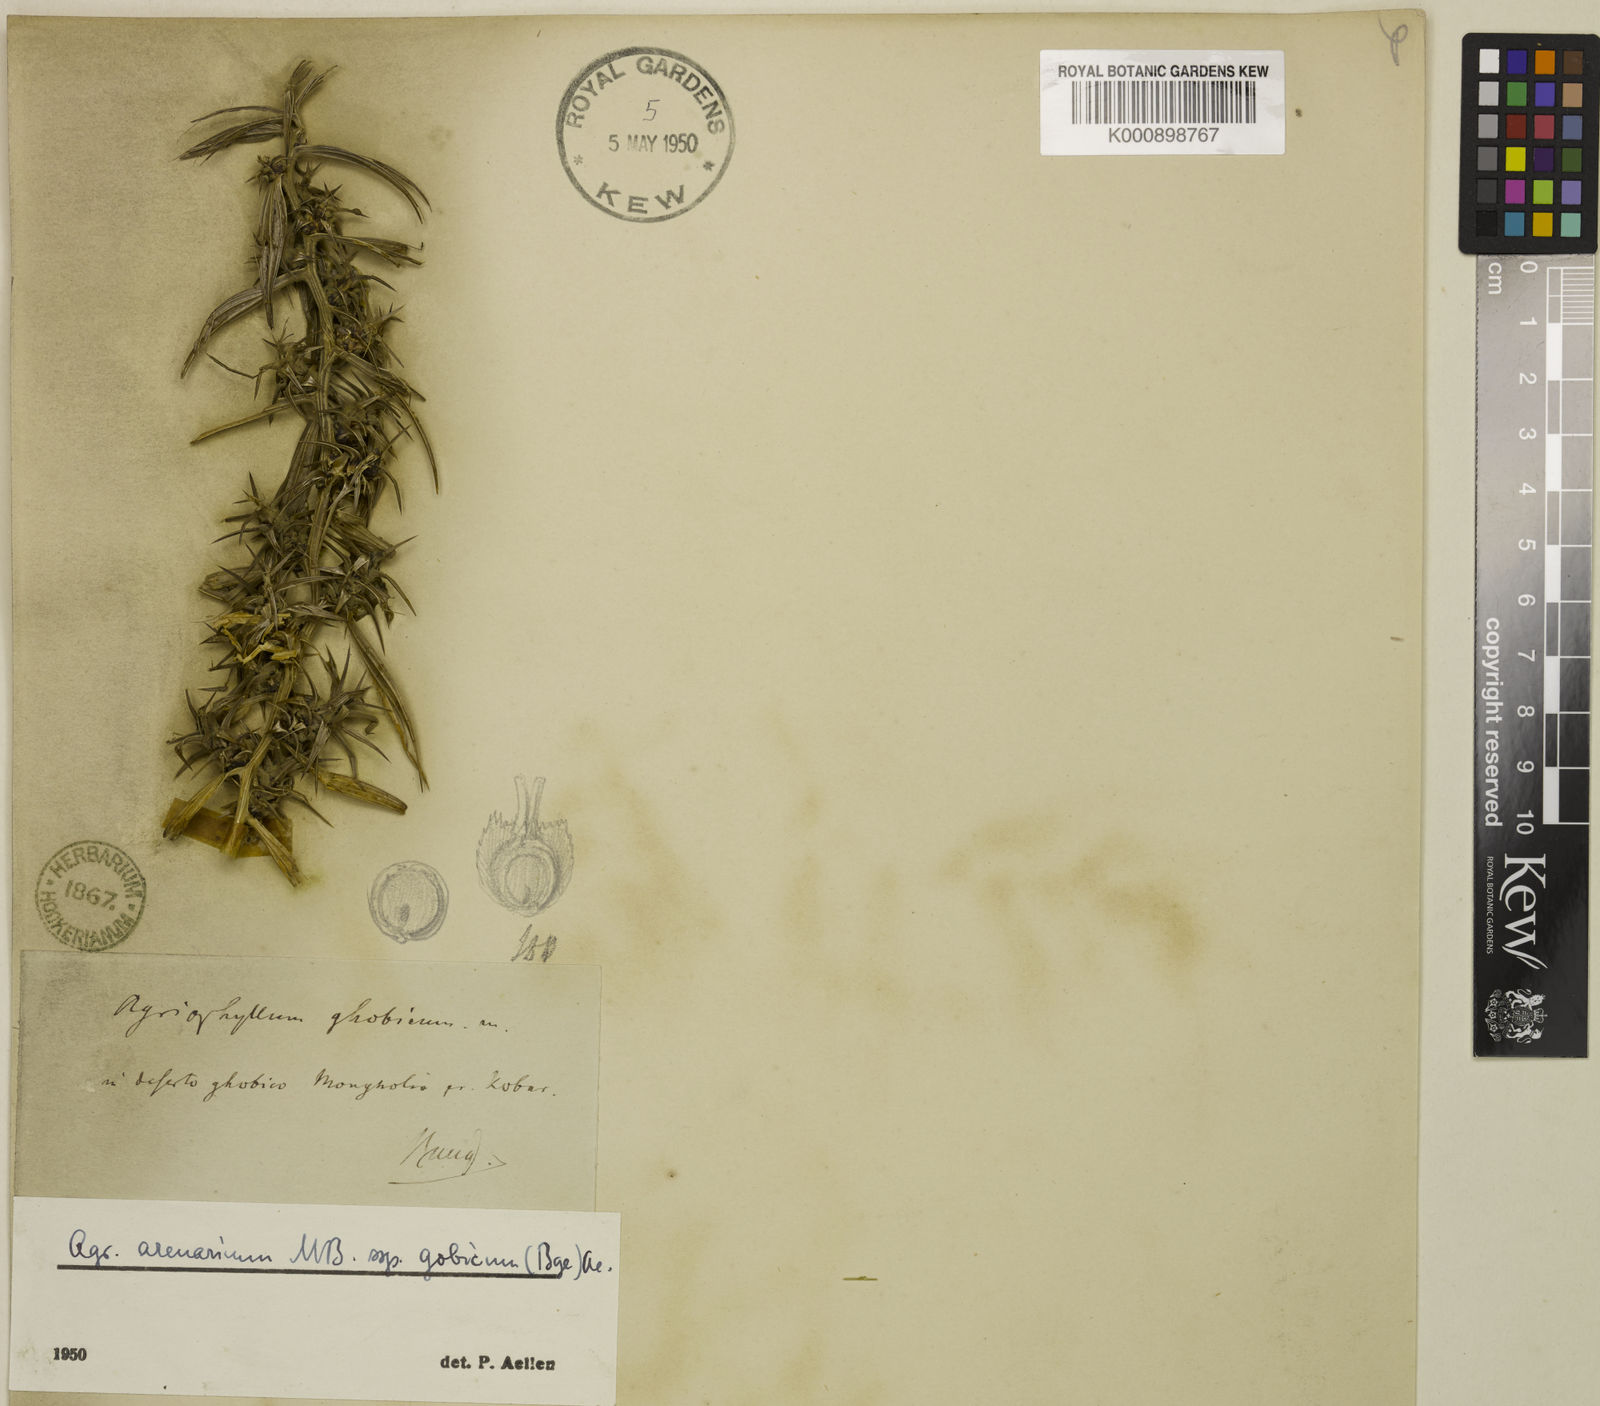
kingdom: Plantae
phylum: Tracheophyta
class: Magnoliopsida
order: Caryophyllales
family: Amaranthaceae
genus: Agriophyllum
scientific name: Agriophyllum
